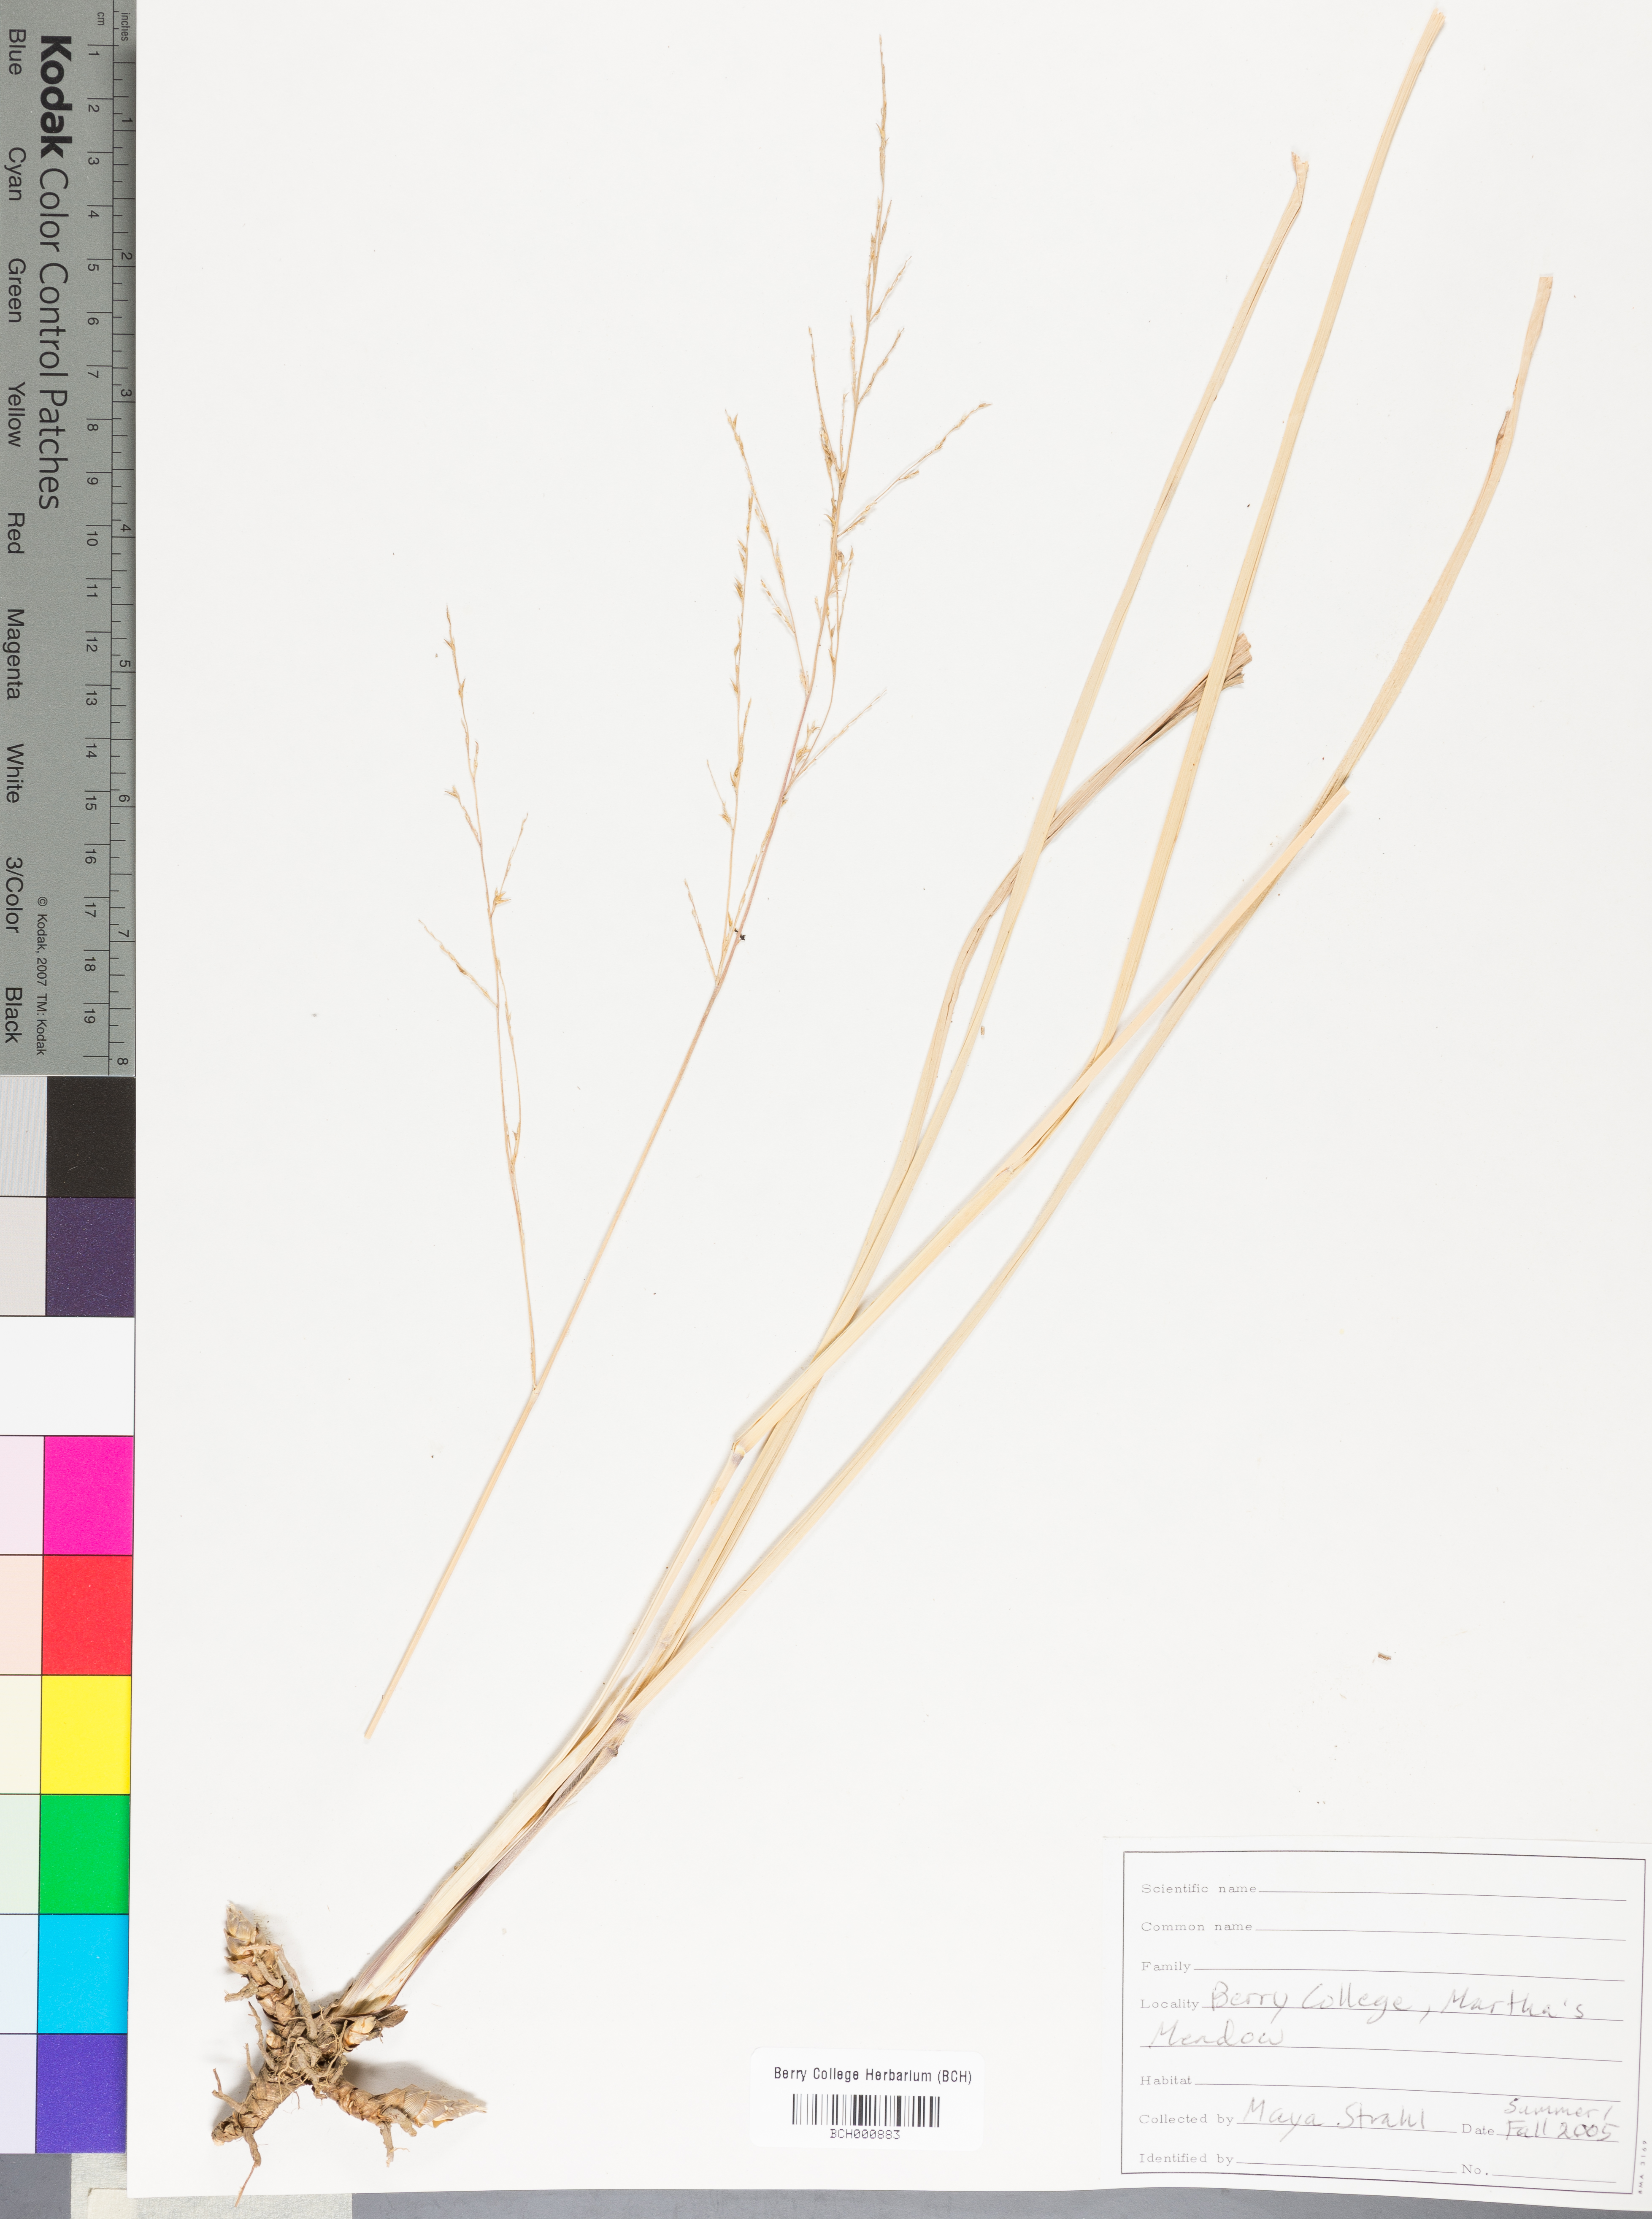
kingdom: Plantae
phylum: Tracheophyta
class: Magnoliopsida
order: Lamiales
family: Acanthaceae
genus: Adhatoda
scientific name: Adhatoda
